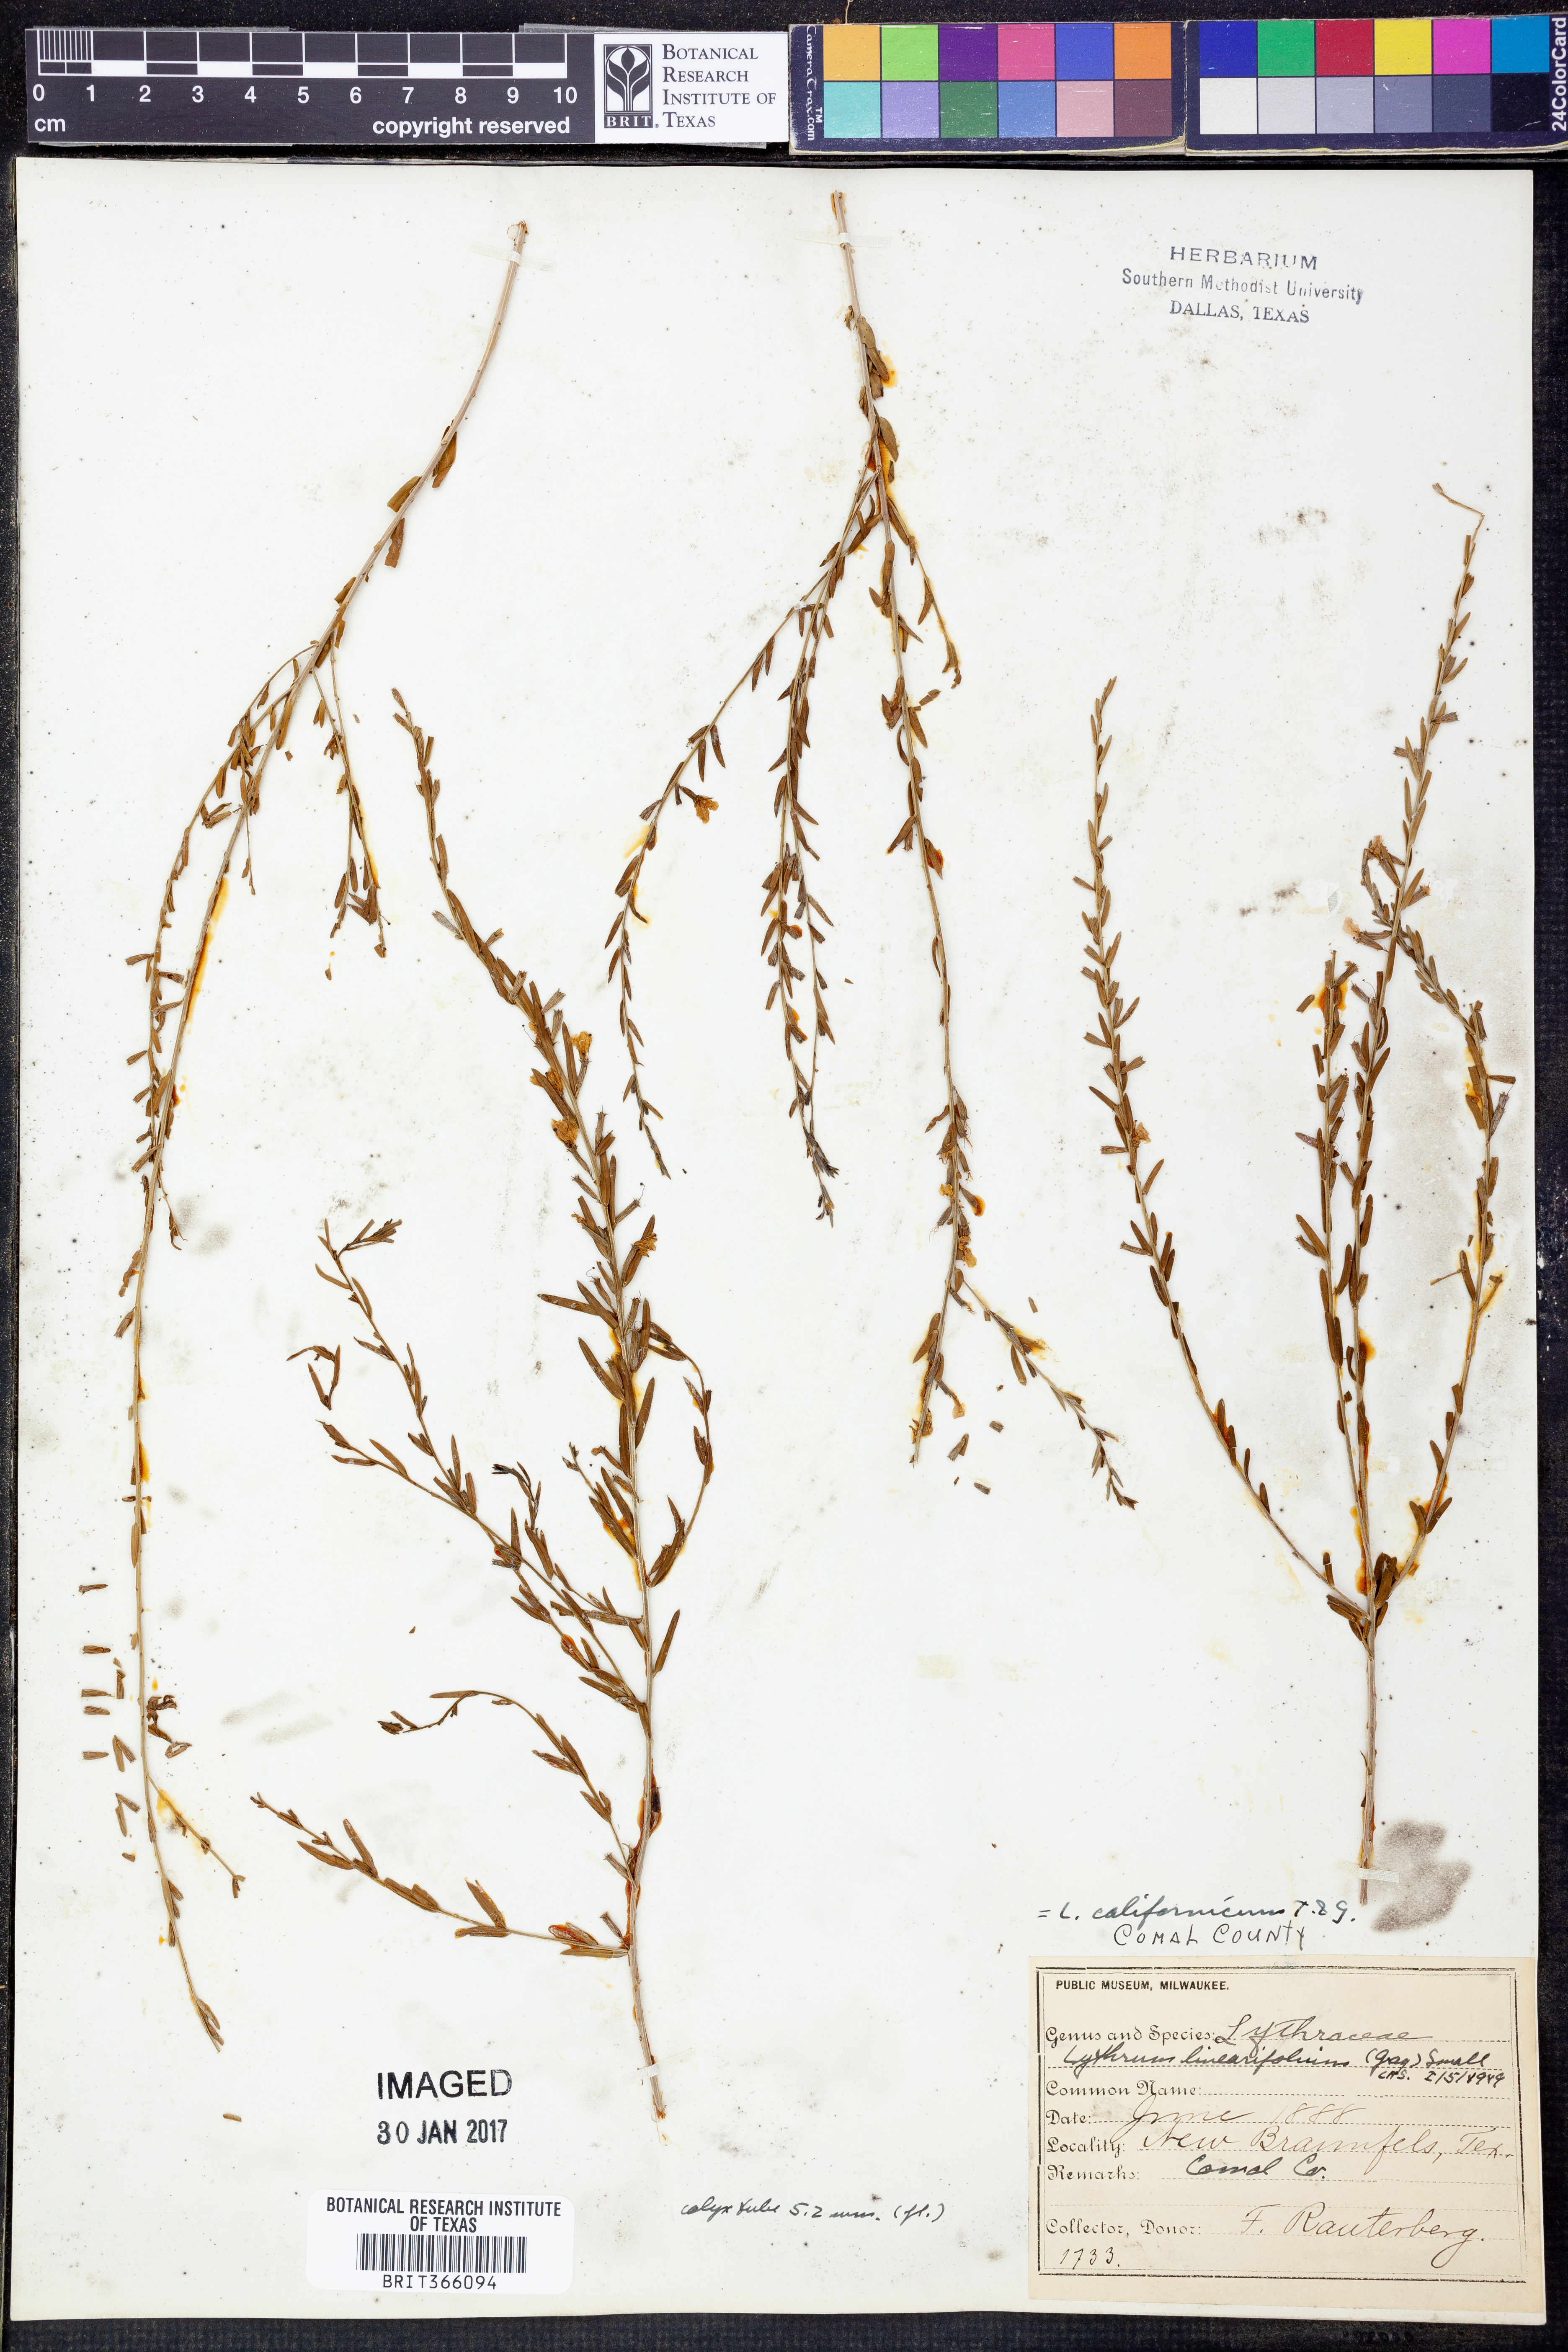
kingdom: Plantae
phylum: Tracheophyta
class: Magnoliopsida
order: Myrtales
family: Lythraceae
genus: Lythrum
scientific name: Lythrum californicum
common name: California loosestrife
